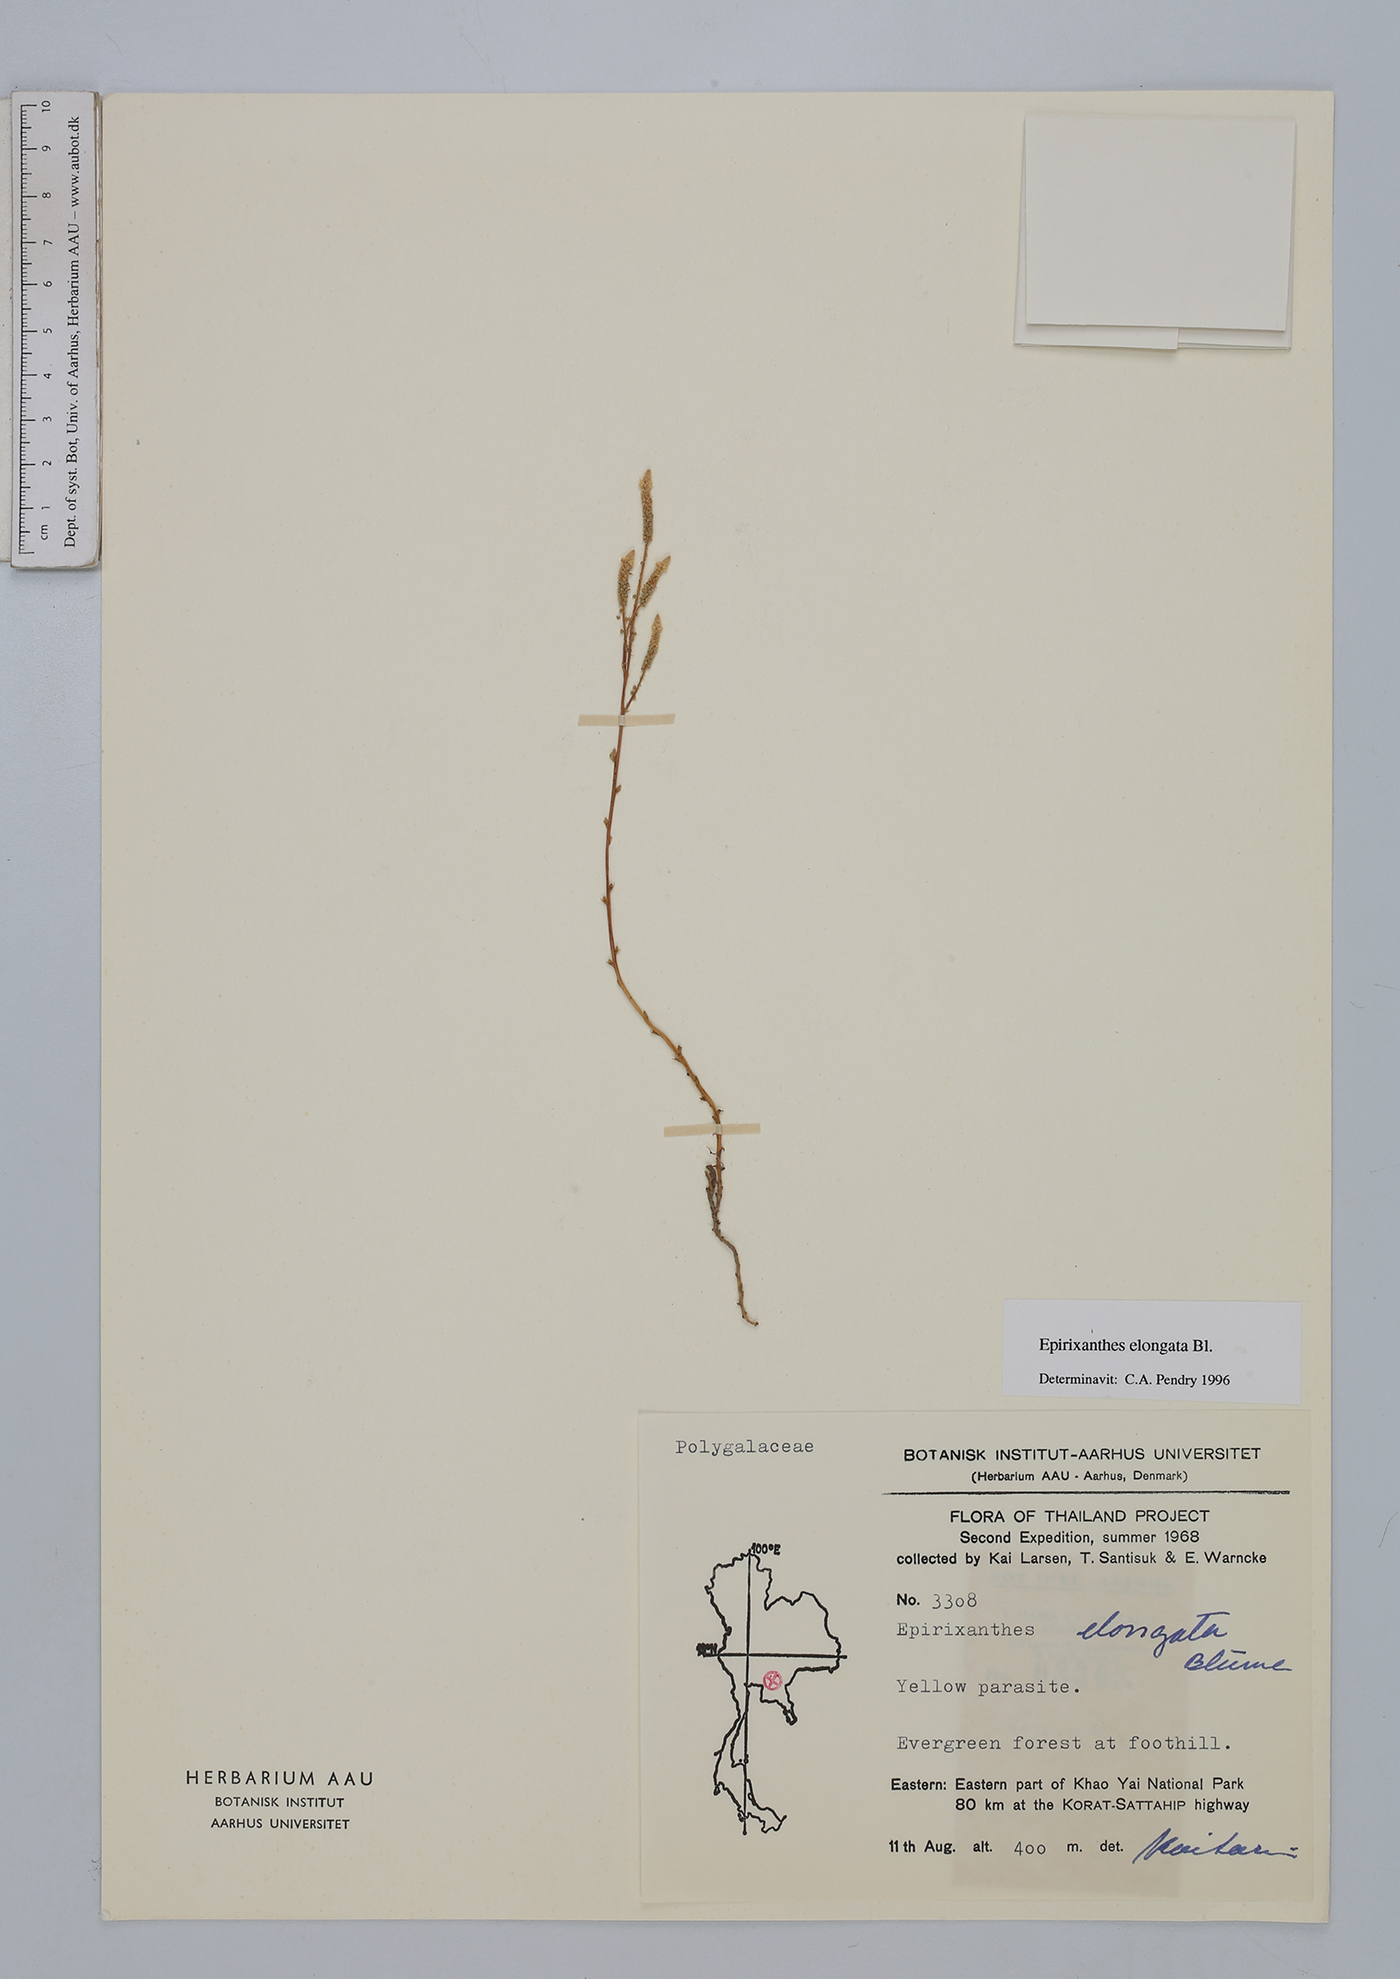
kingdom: Plantae
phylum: Tracheophyta
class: Magnoliopsida
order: Fabales
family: Polygalaceae
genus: Epirixanthes
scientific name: Epirixanthes elongata
